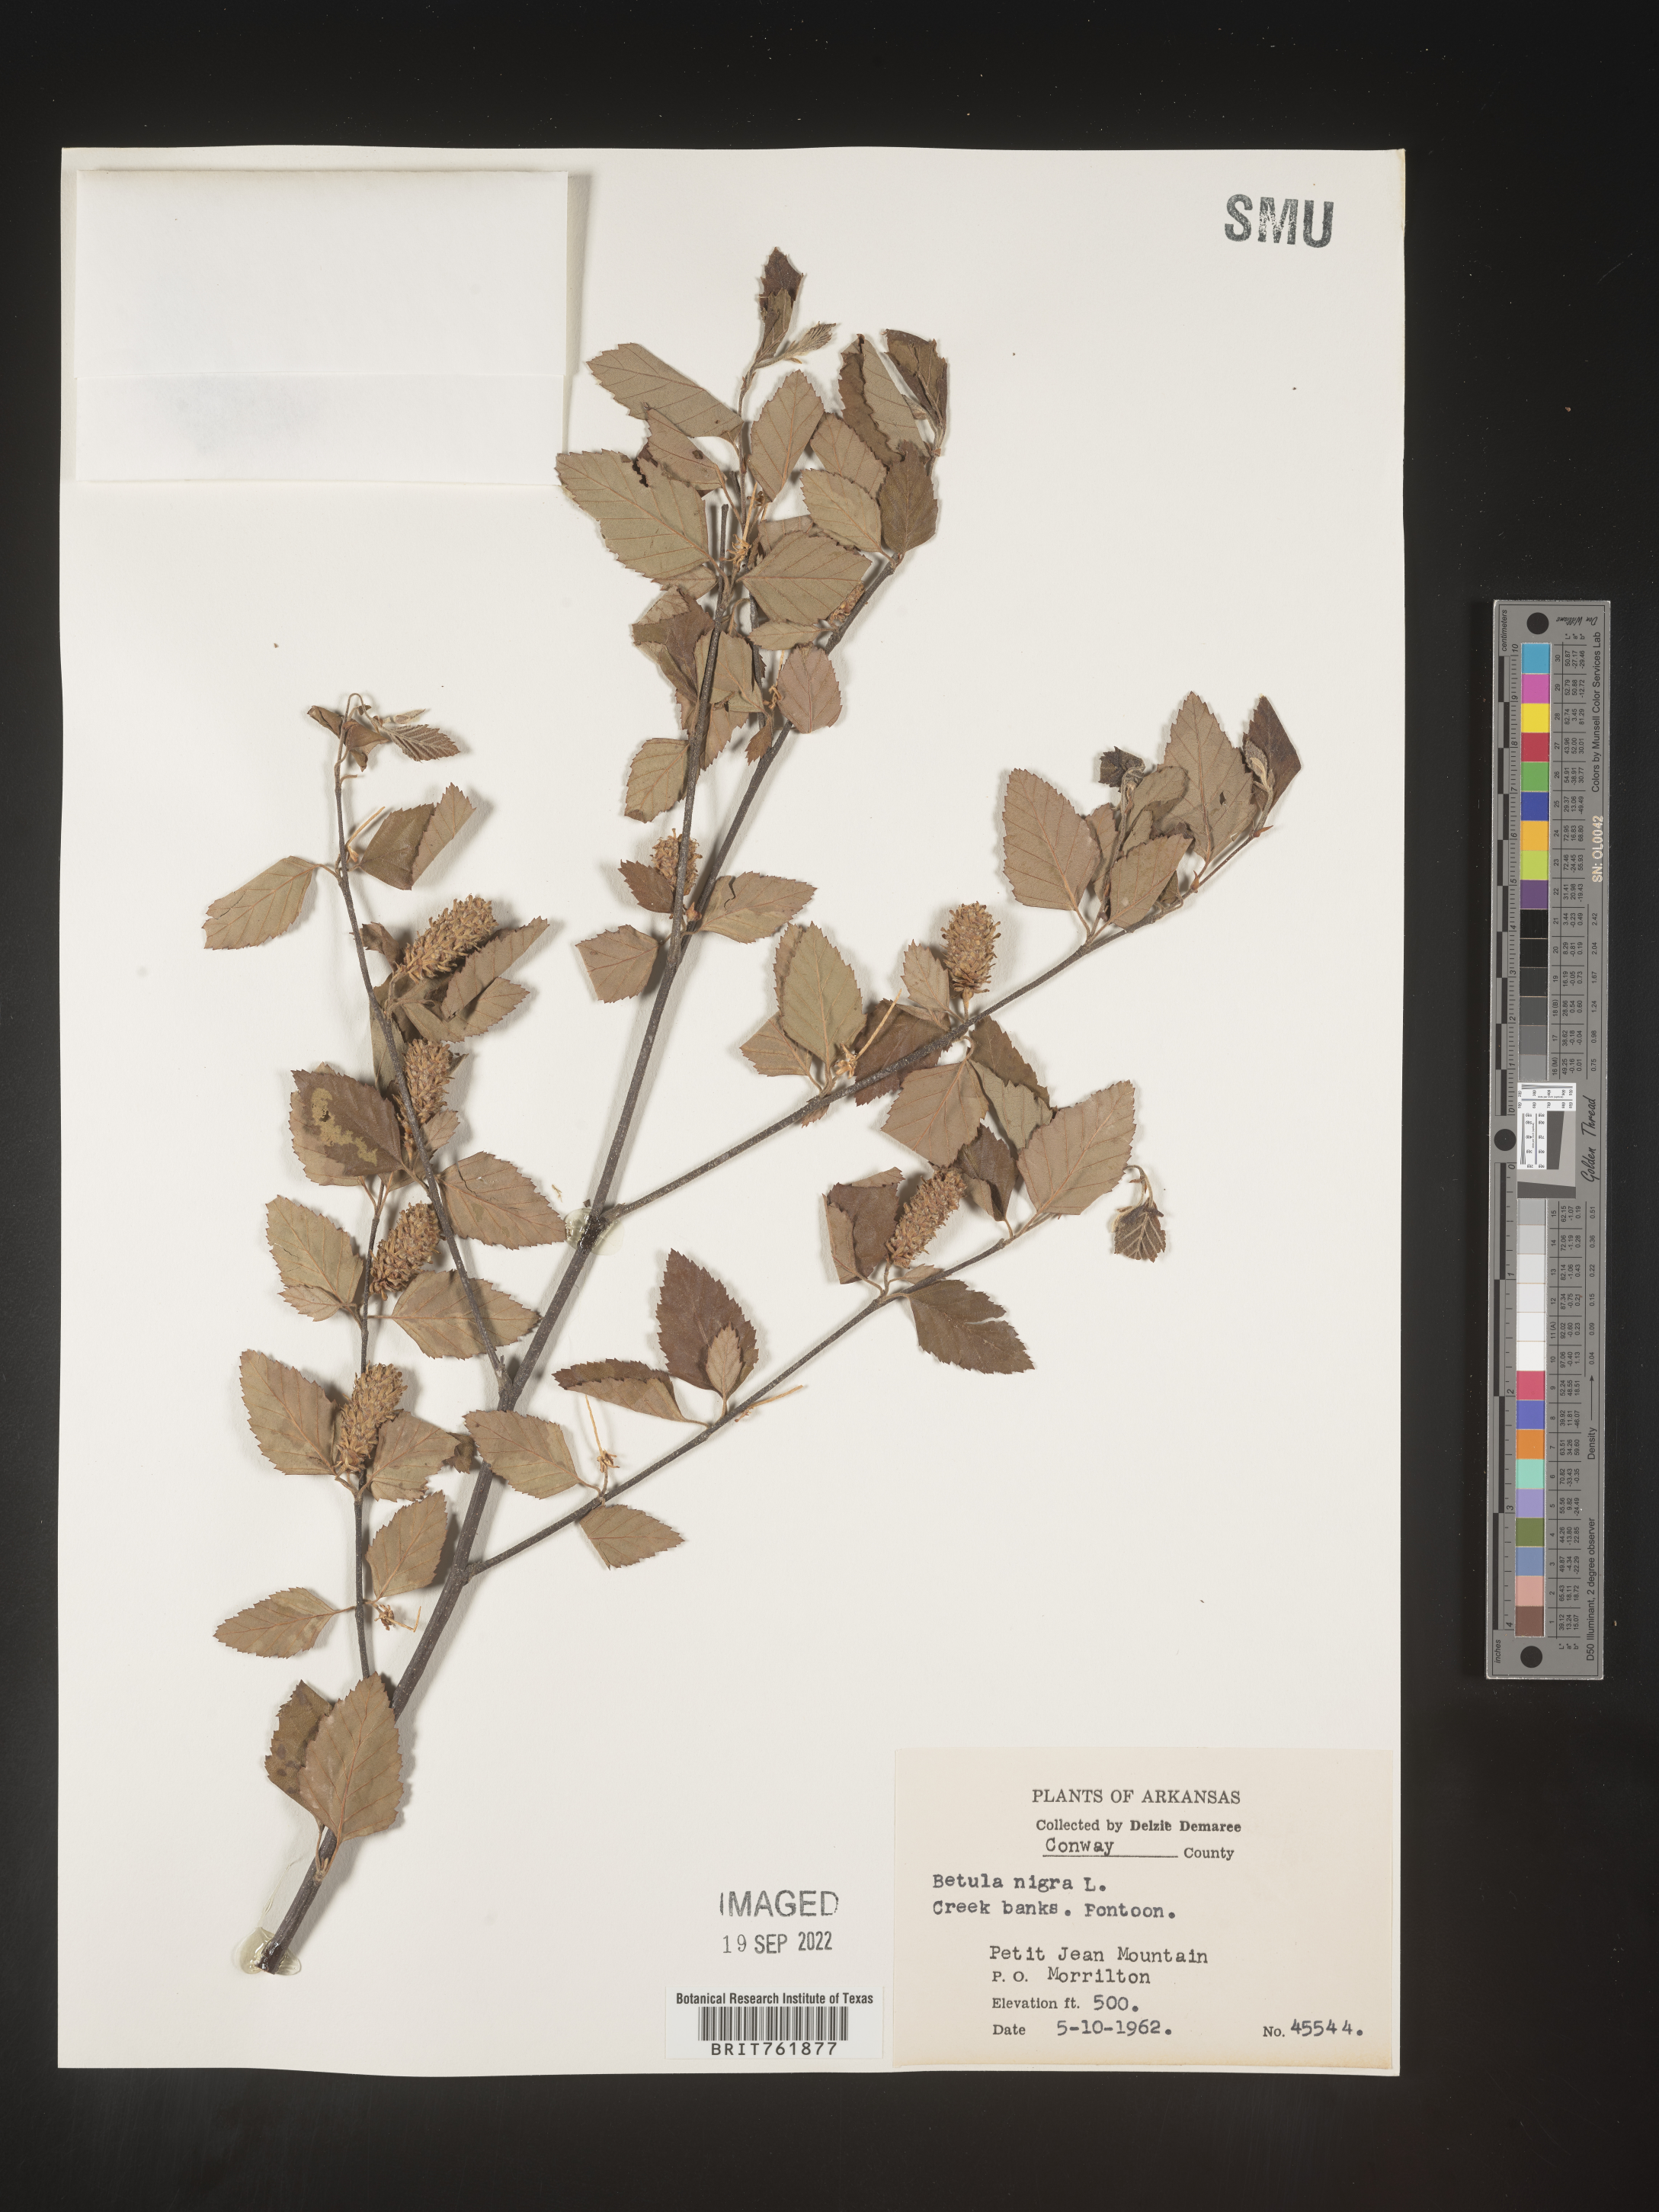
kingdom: Plantae
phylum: Tracheophyta
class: Magnoliopsida
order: Fagales
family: Betulaceae
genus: Betula
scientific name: Betula nigra
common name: Black birch
